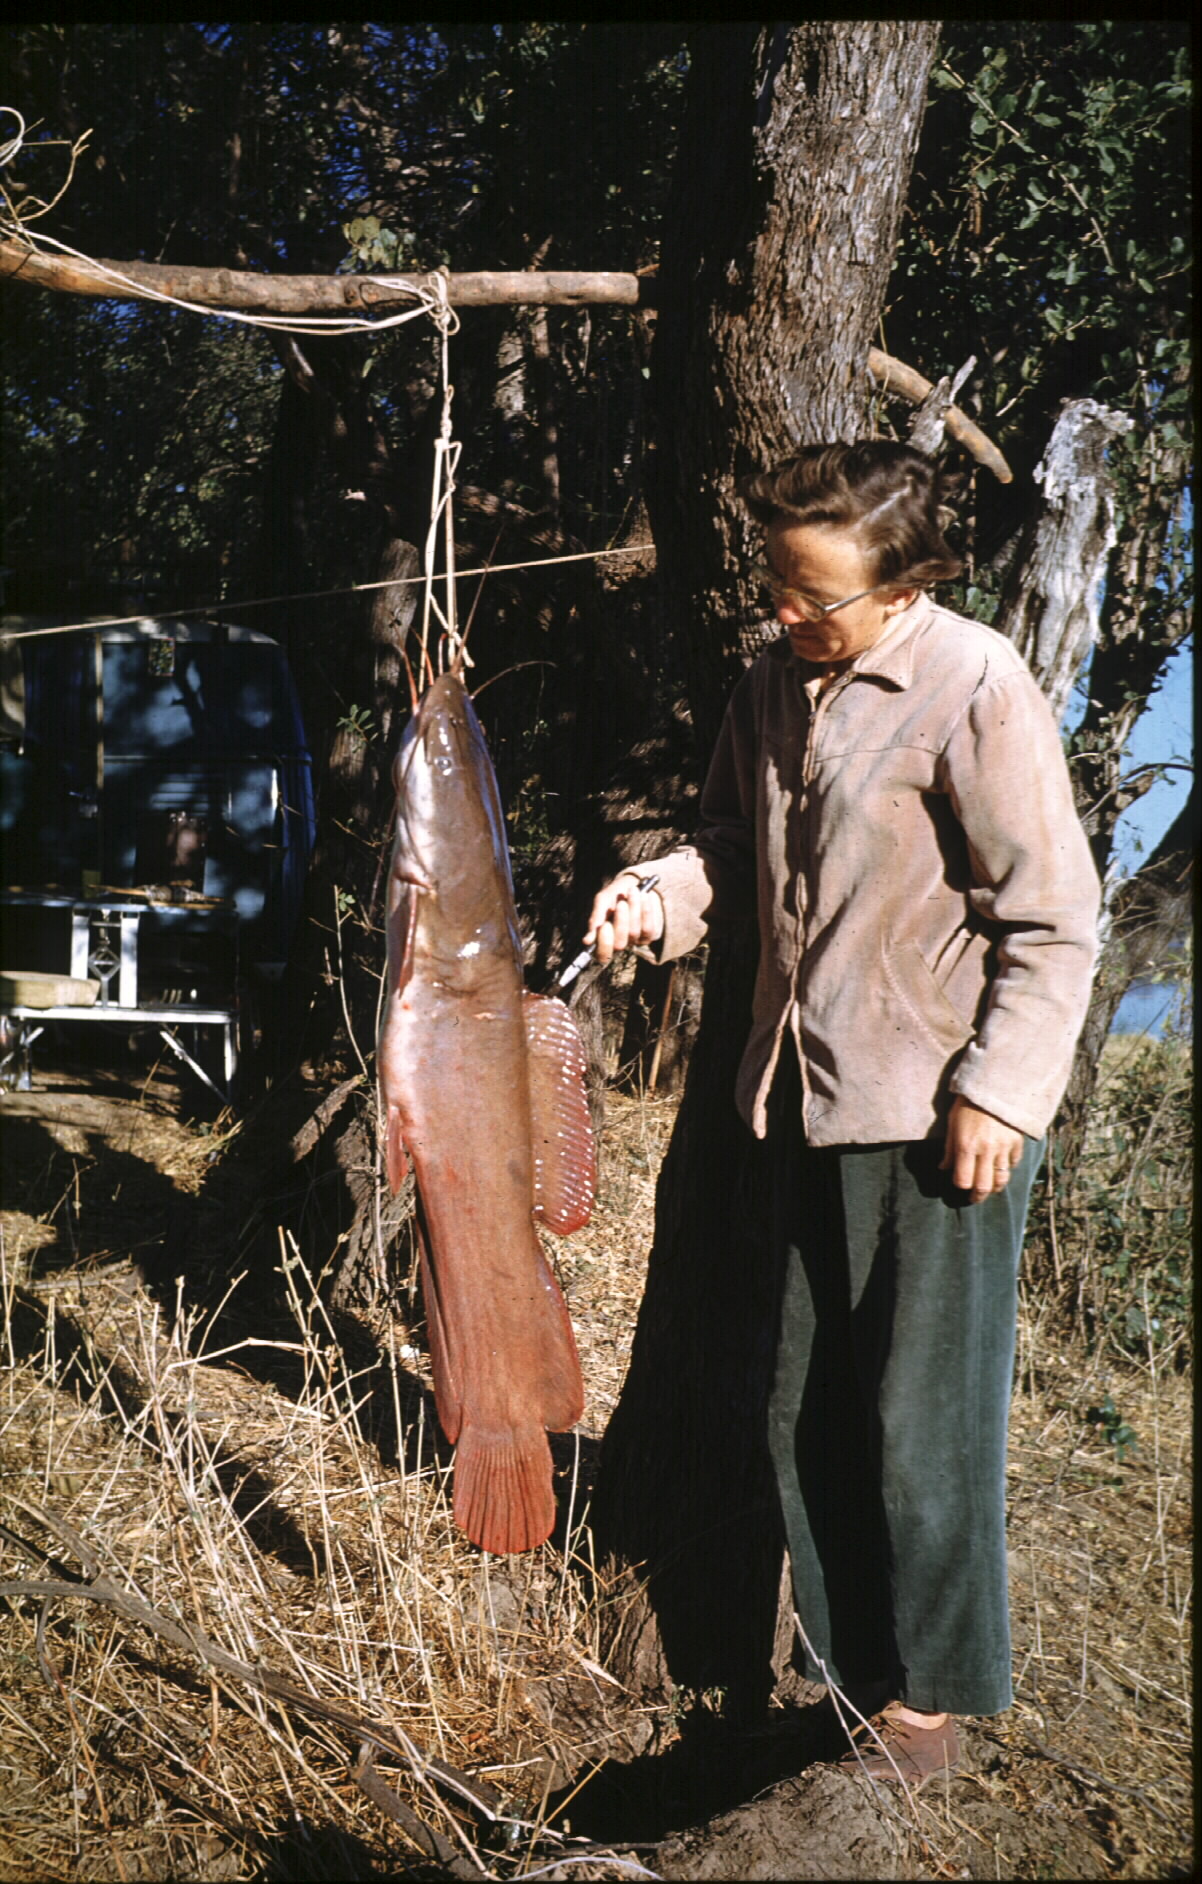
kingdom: Animalia
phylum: Chordata
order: Siluriformes
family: Clariidae
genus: Heterobranchus
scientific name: Heterobranchus longifilis
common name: Catfish
